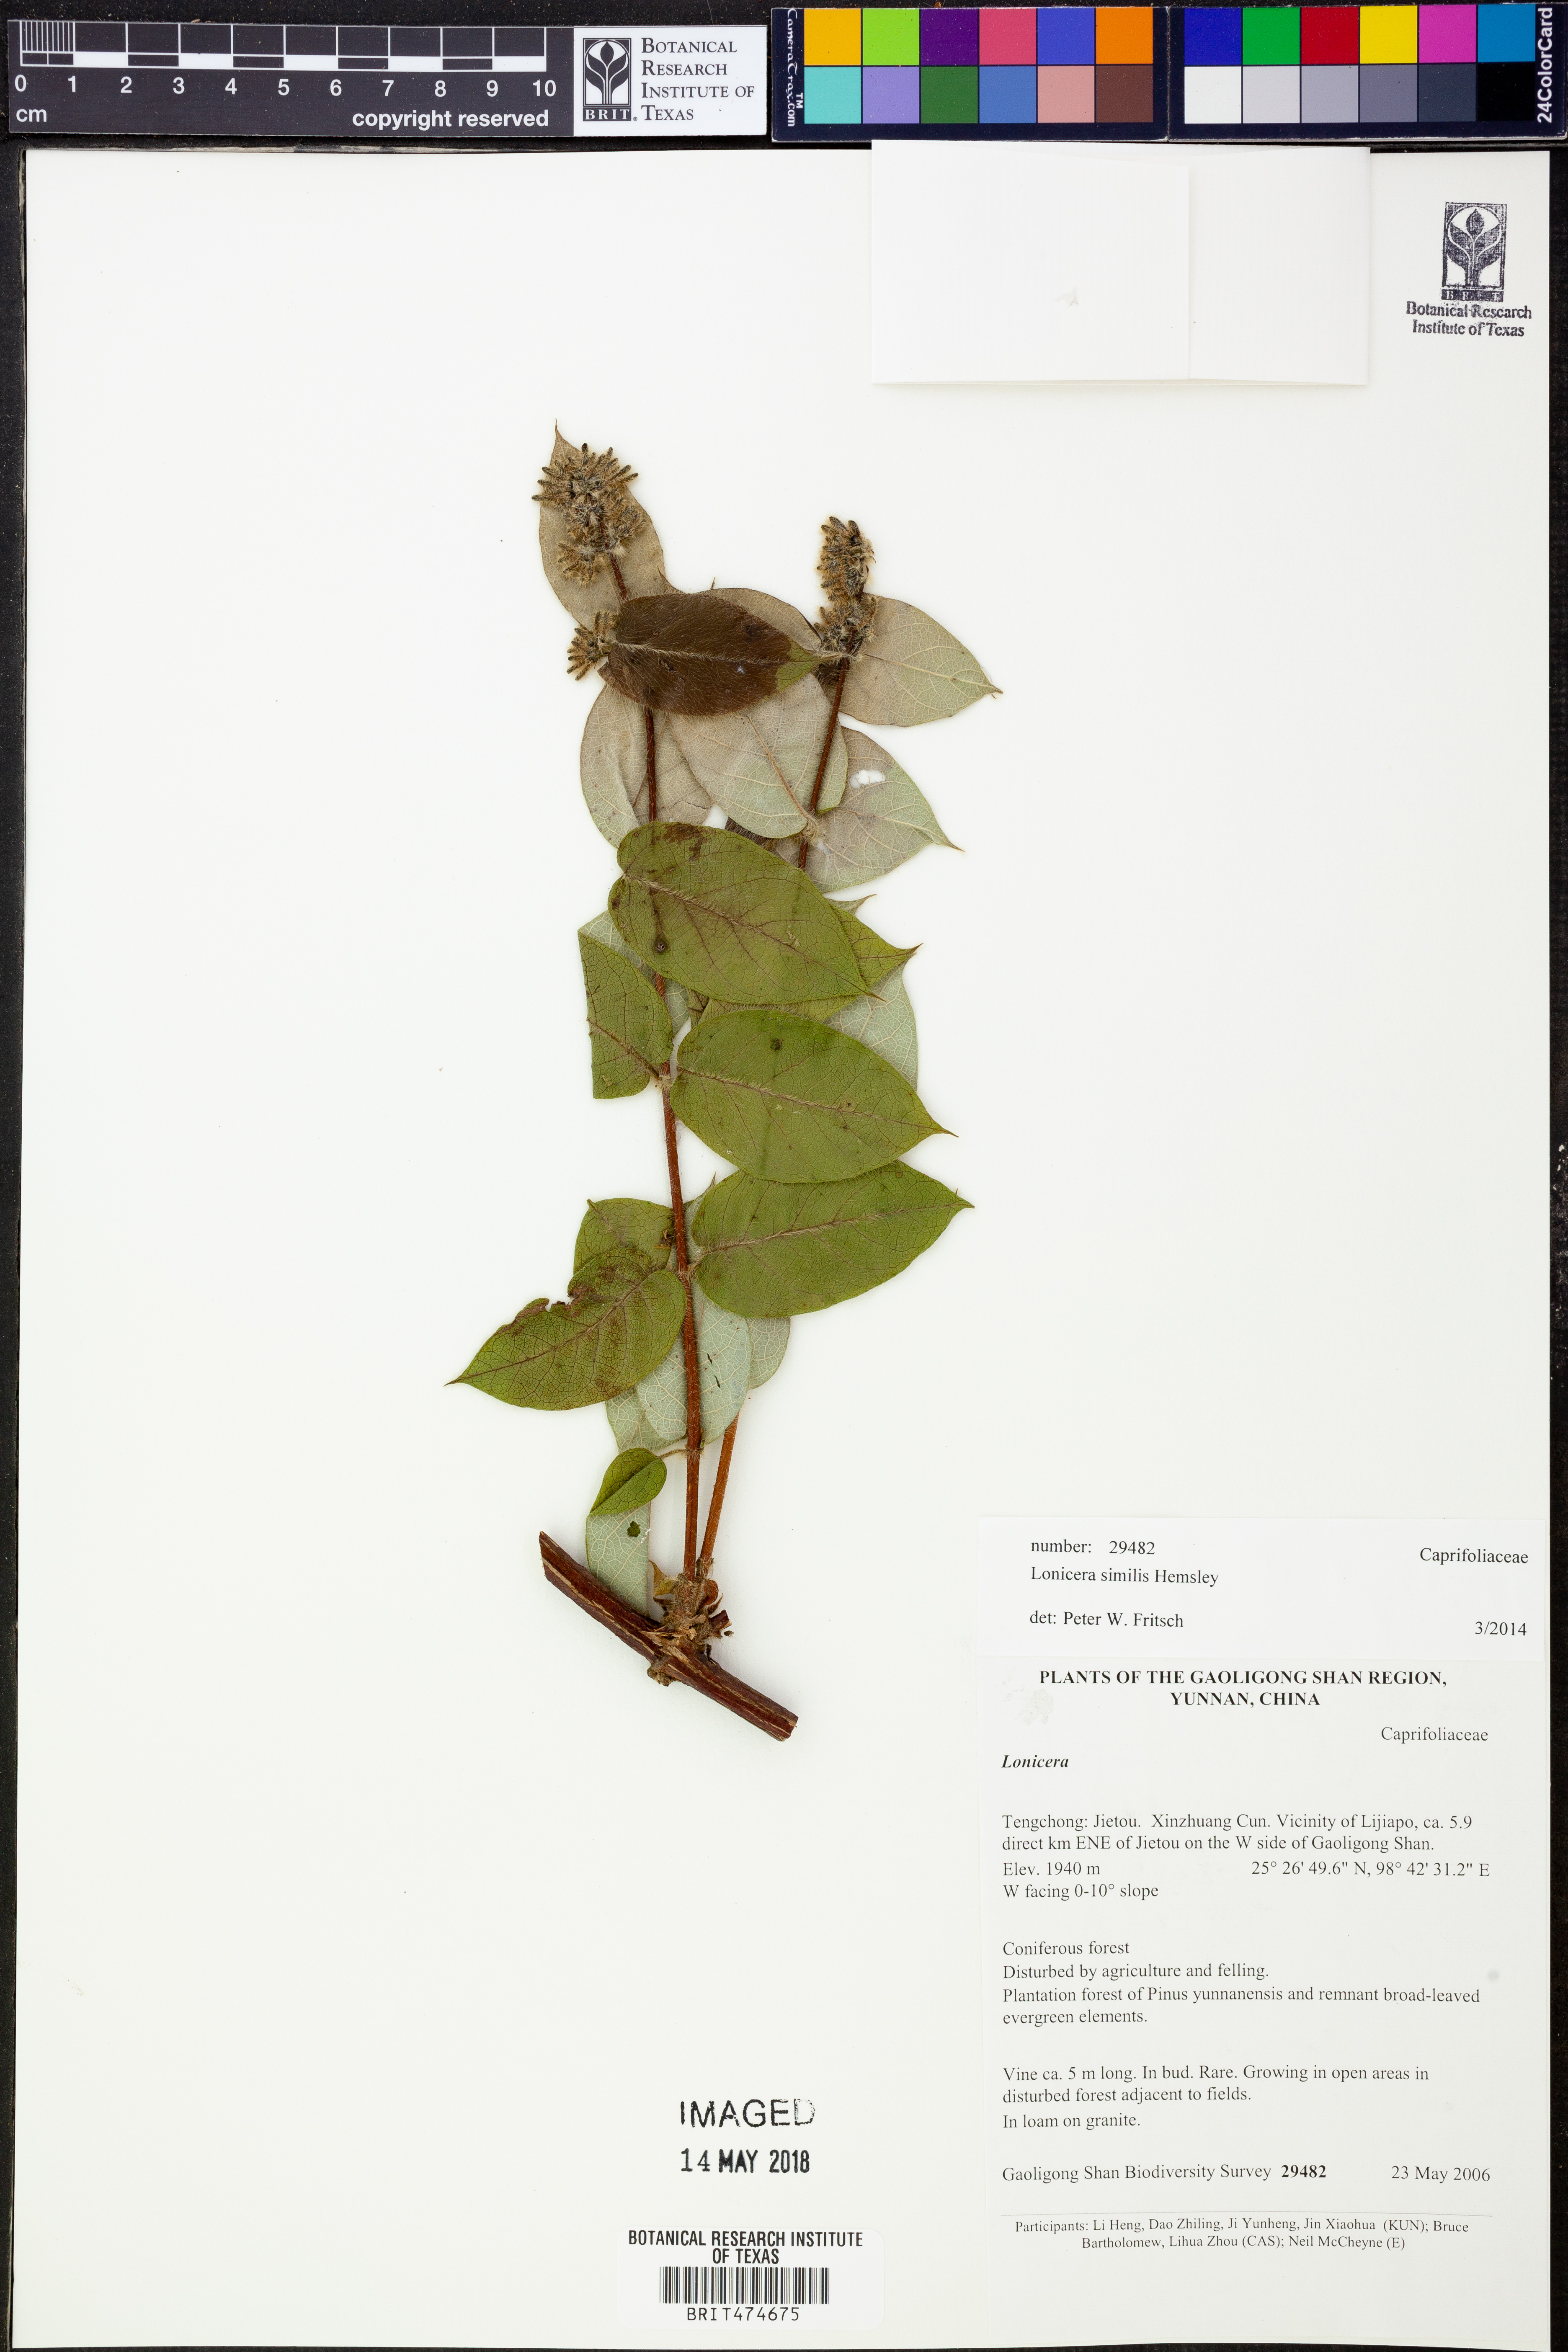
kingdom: Plantae
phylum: Tracheophyta
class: Magnoliopsida
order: Dipsacales
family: Caprifoliaceae
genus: Lonicera
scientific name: Lonicera similis
